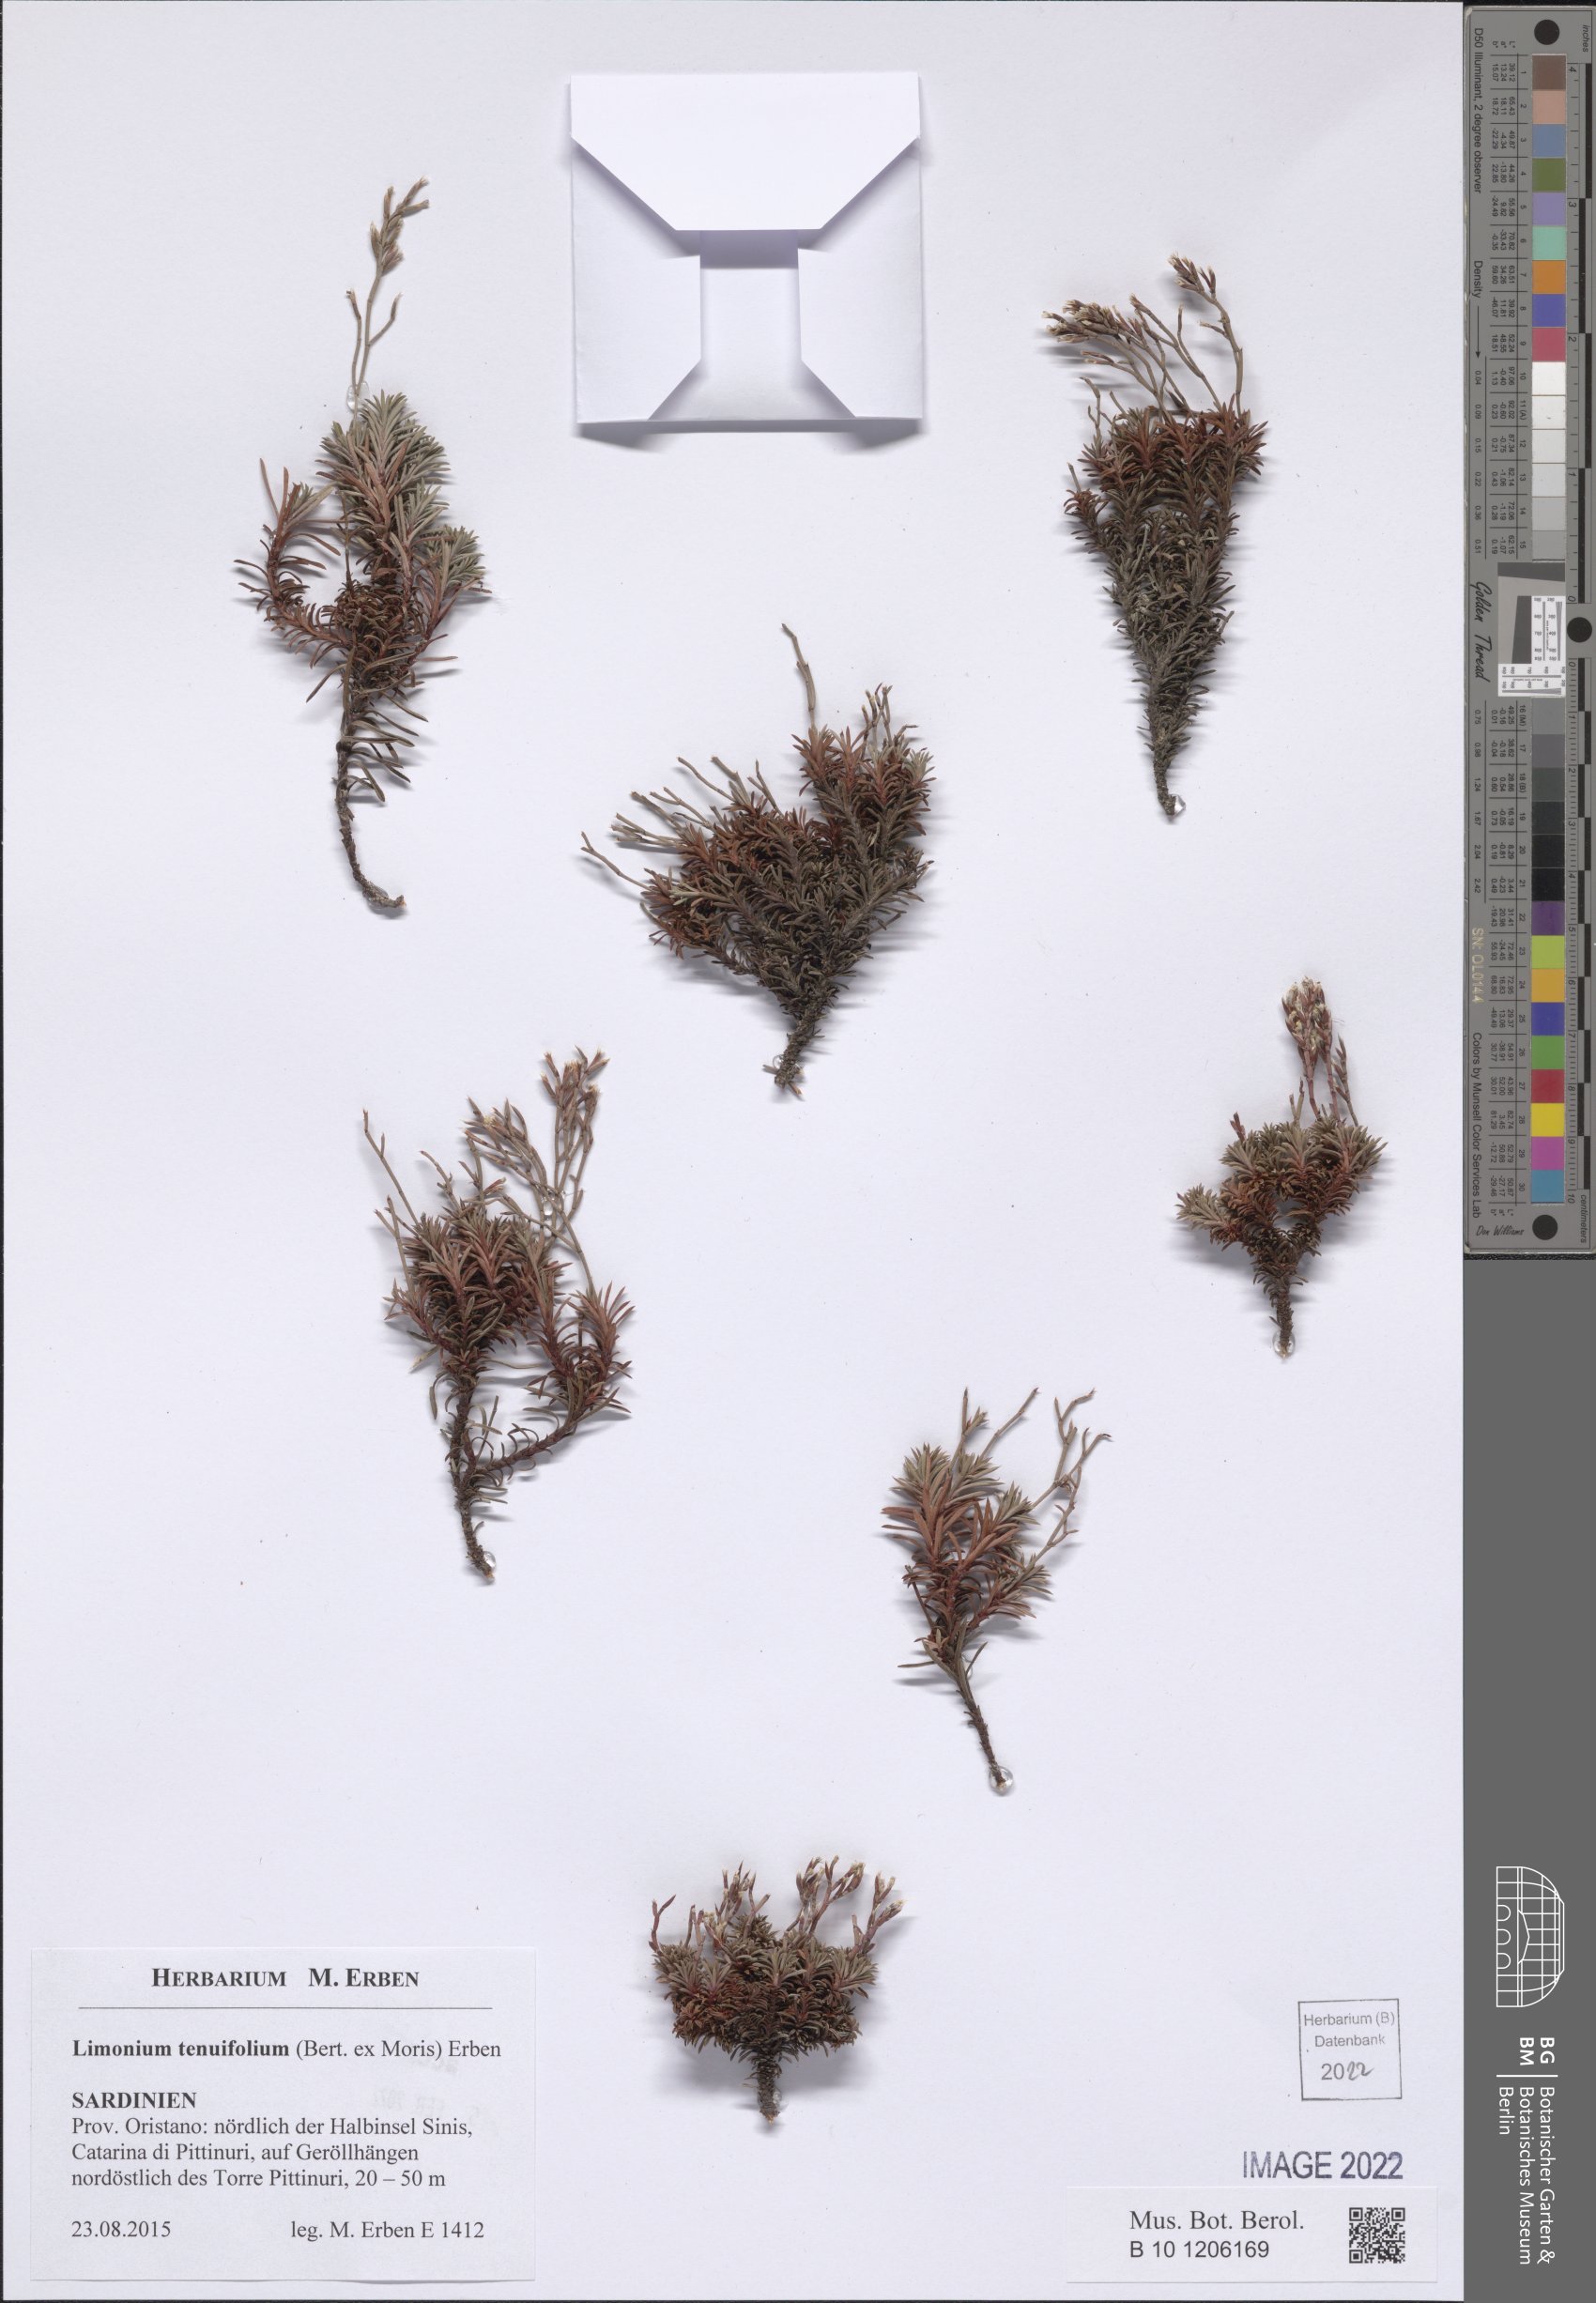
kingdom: Plantae
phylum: Tracheophyta
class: Magnoliopsida
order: Caryophyllales
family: Plumbaginaceae
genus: Limonium
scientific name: Limonium acutifolium
